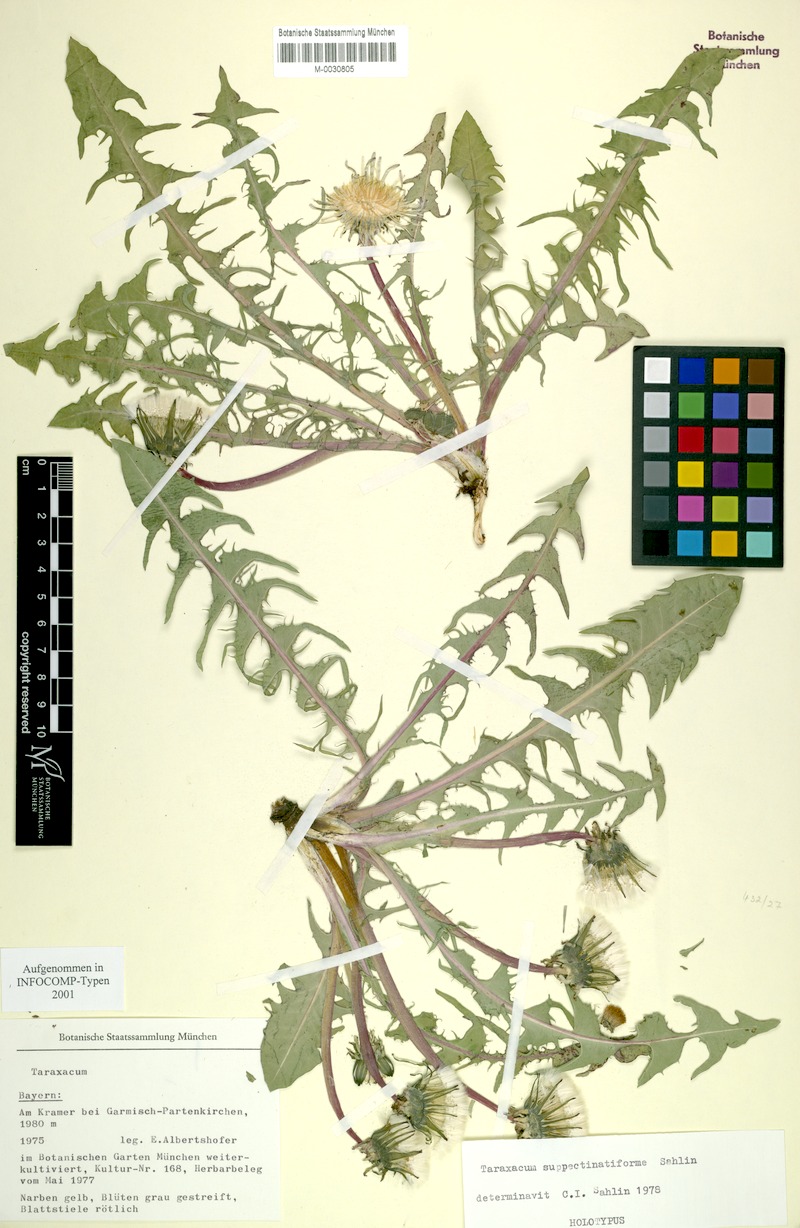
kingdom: Plantae
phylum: Tracheophyta
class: Magnoliopsida
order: Asterales
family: Asteraceae
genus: Taraxacum
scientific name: Taraxacum
